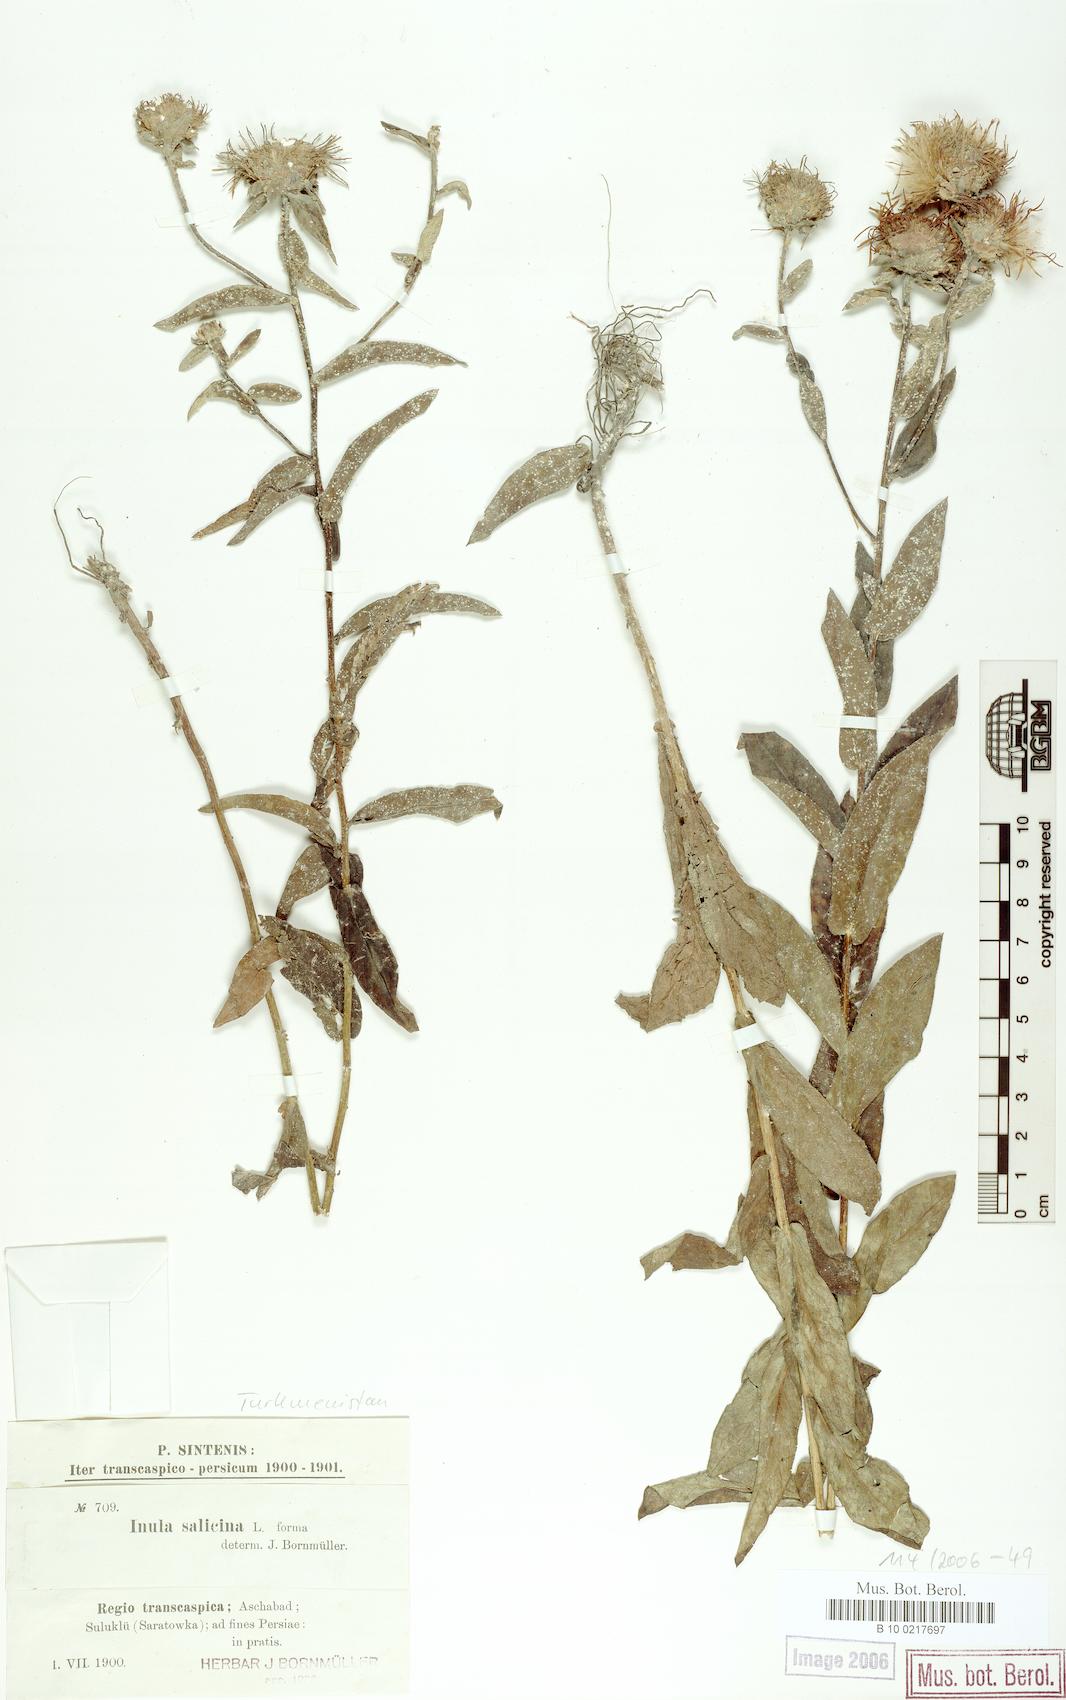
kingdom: Plantae
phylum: Tracheophyta
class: Magnoliopsida
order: Asterales
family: Asteraceae
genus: Pentanema
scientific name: Pentanema salicinum
